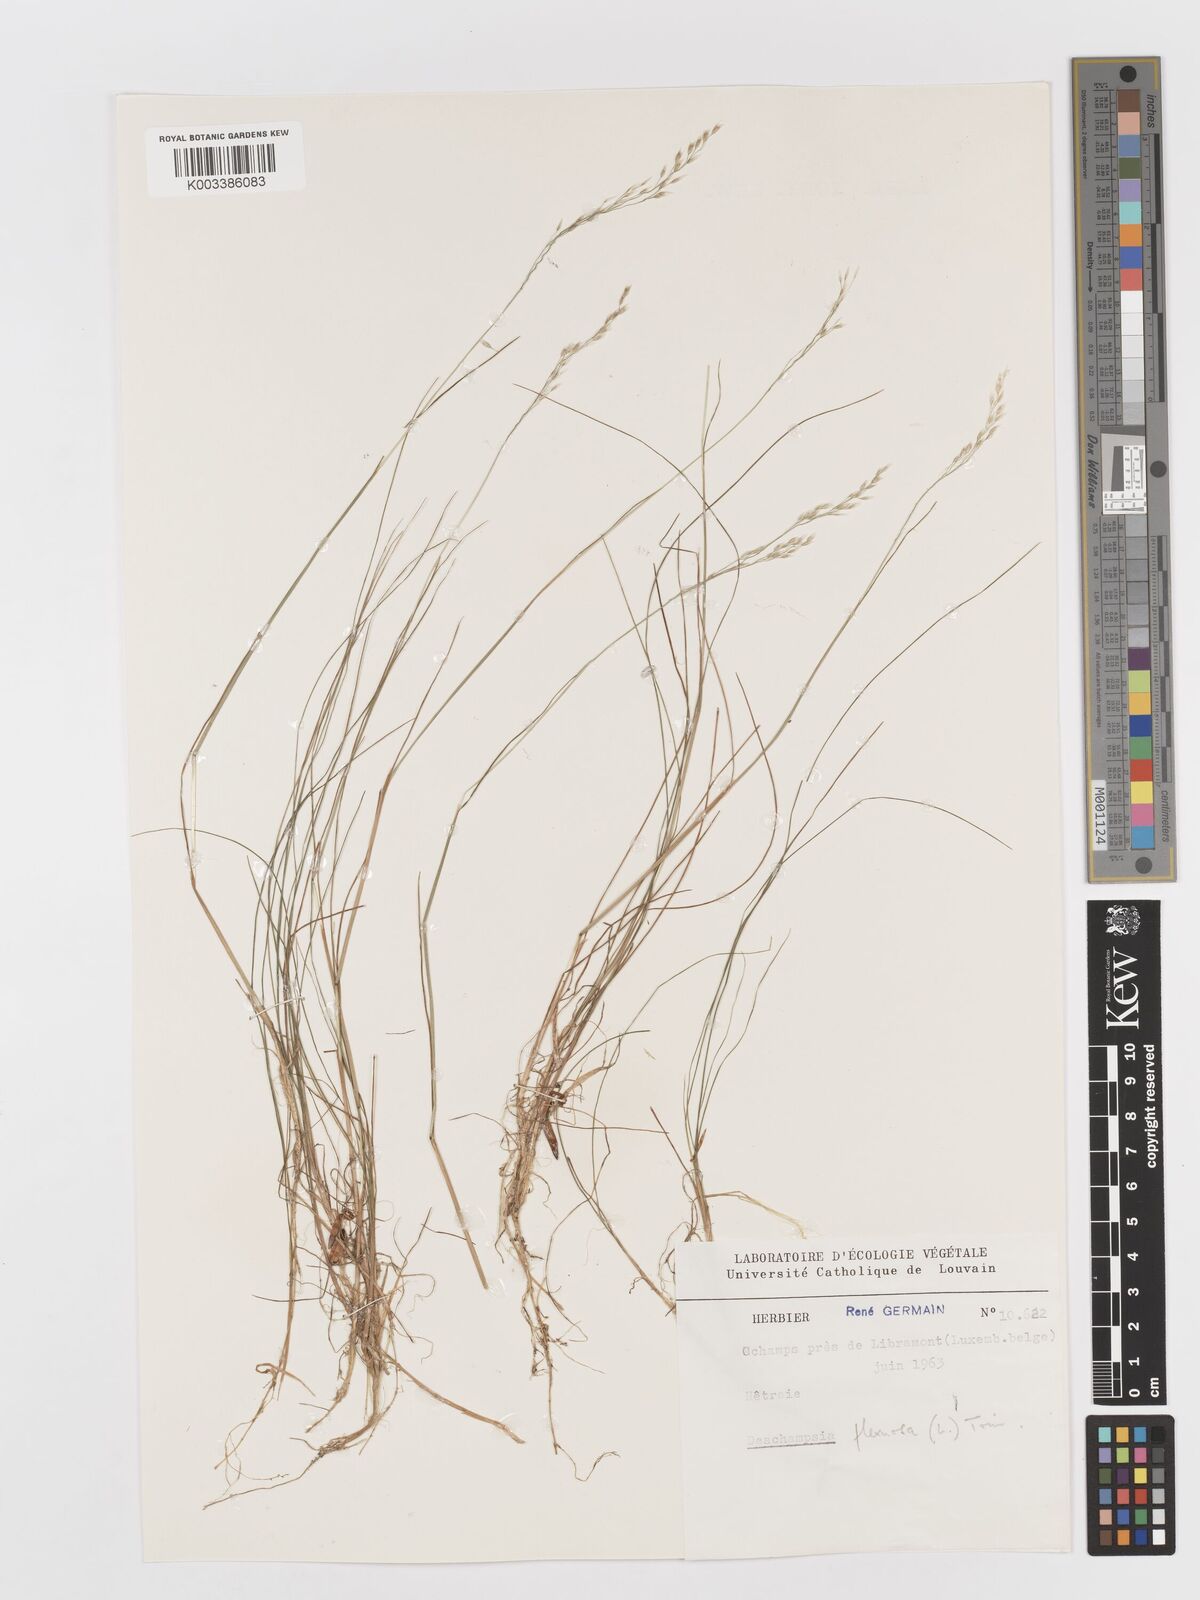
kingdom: Plantae
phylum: Tracheophyta
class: Liliopsida
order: Poales
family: Poaceae
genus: Avenella
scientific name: Avenella flexuosa
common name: Wavy hairgrass
